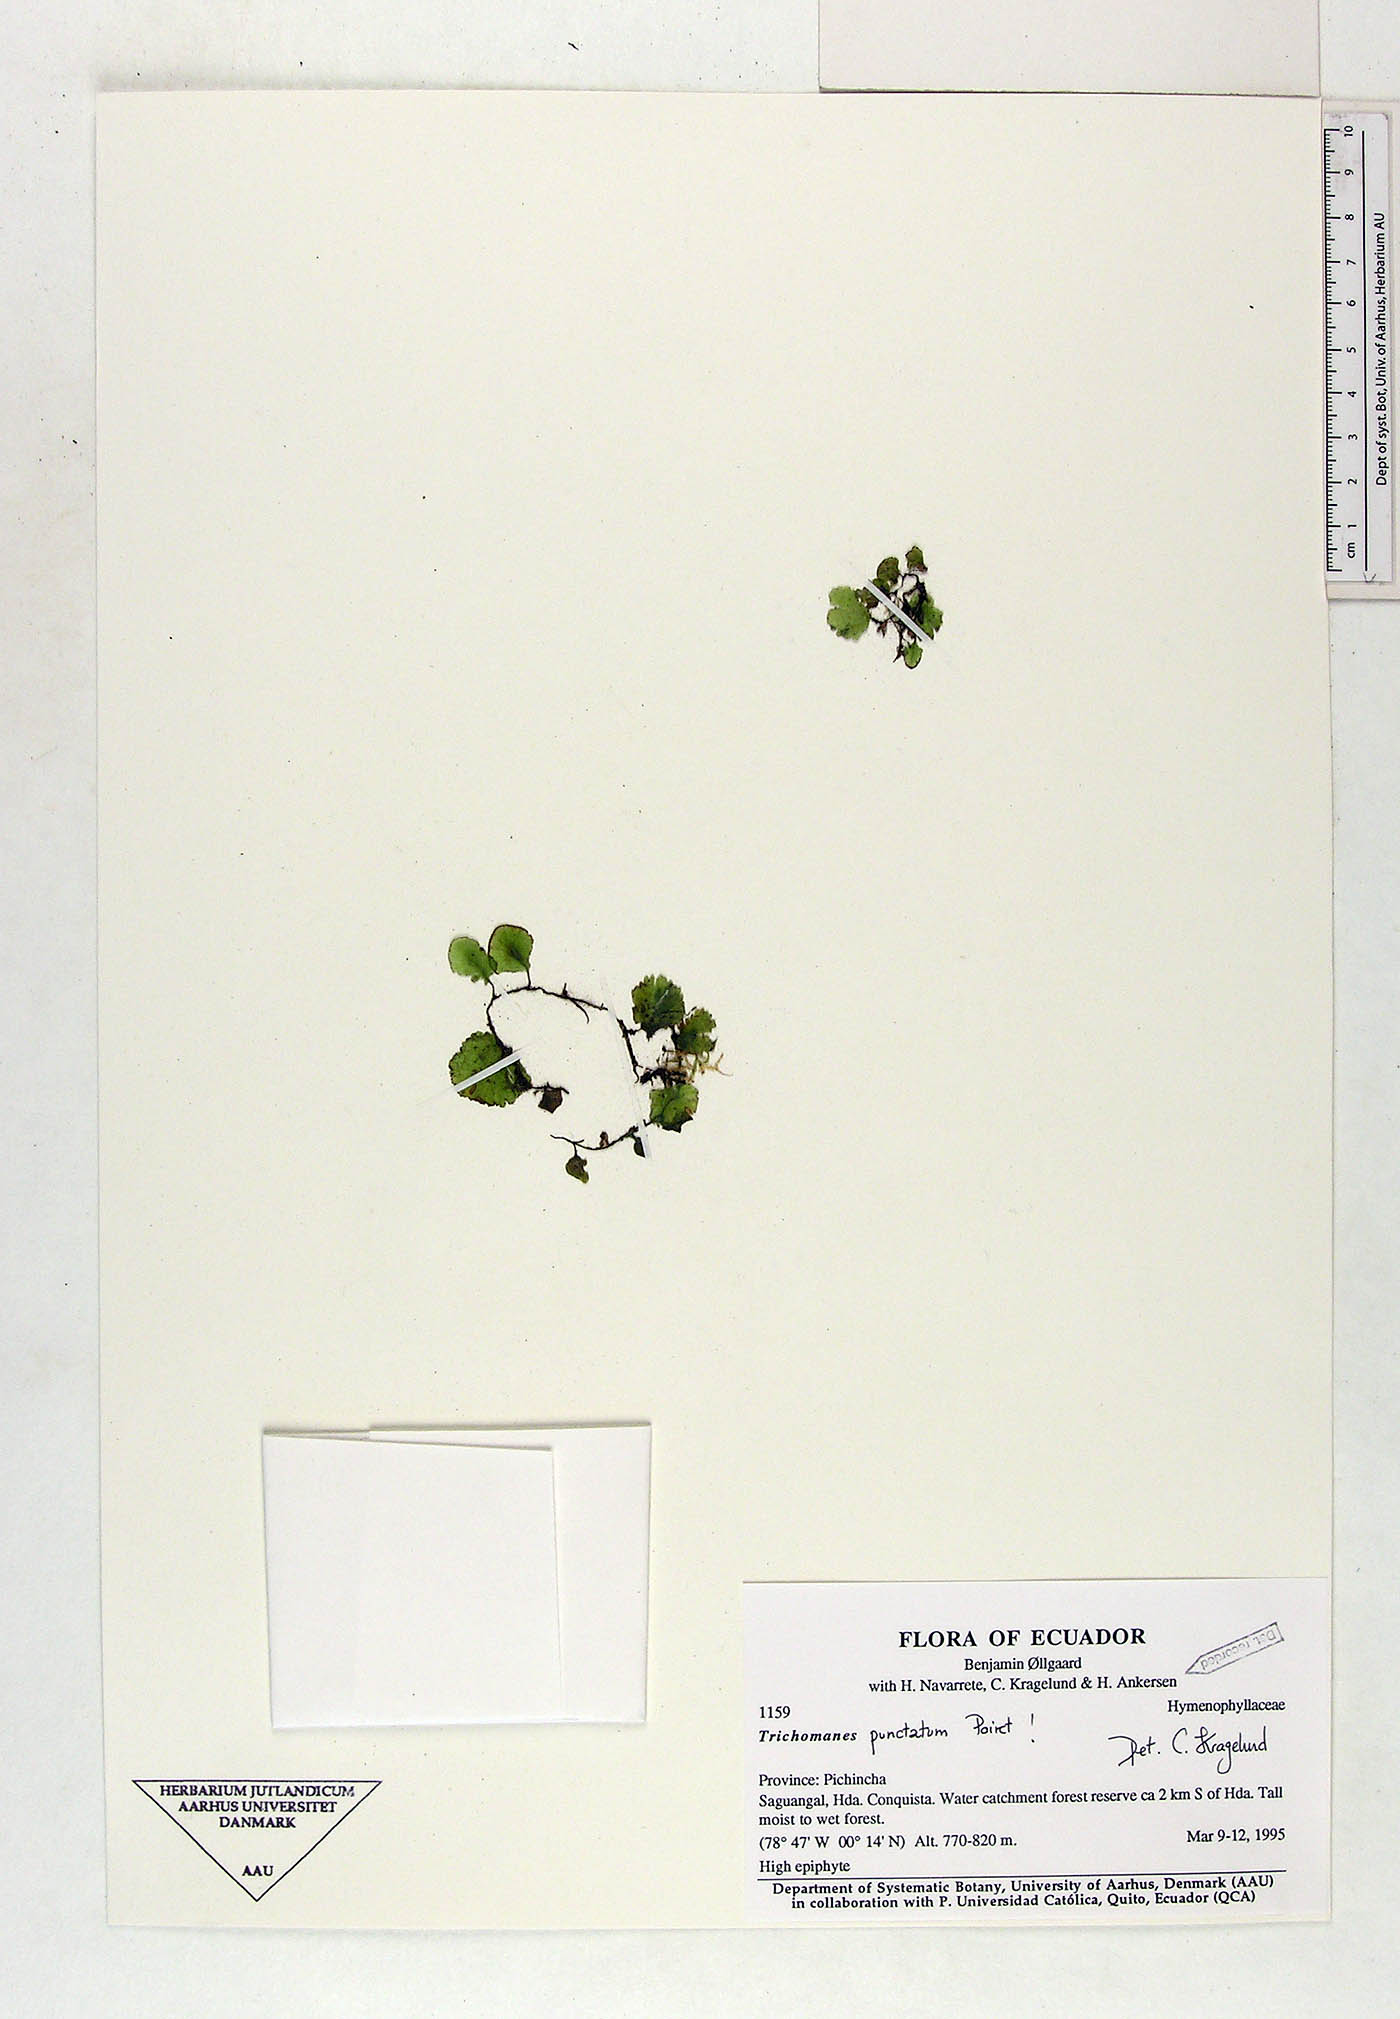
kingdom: Plantae
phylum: Tracheophyta
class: Polypodiopsida
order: Hymenophyllales
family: Hymenophyllaceae
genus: Didymoglossum
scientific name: Didymoglossum punctatum
